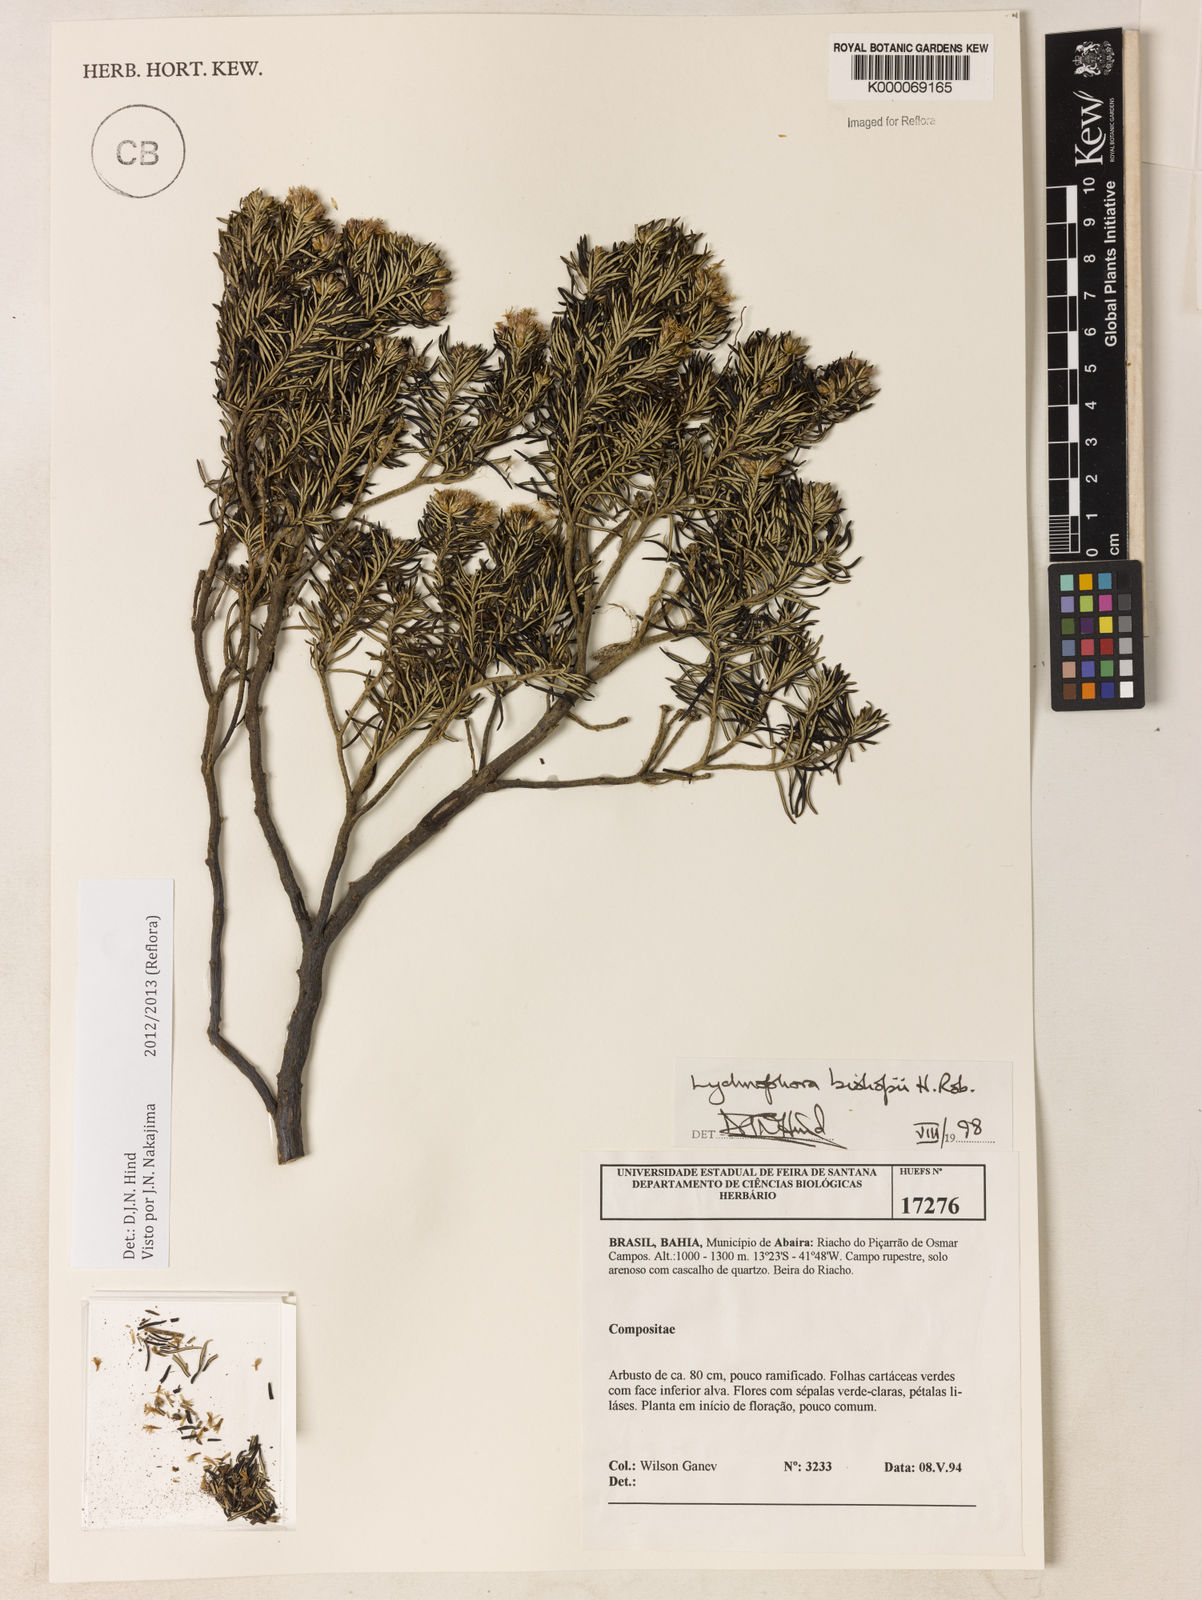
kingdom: Plantae
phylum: Tracheophyta
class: Magnoliopsida
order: Asterales
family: Asteraceae
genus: Lychnophorella
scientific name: Lychnophorella bishopii
